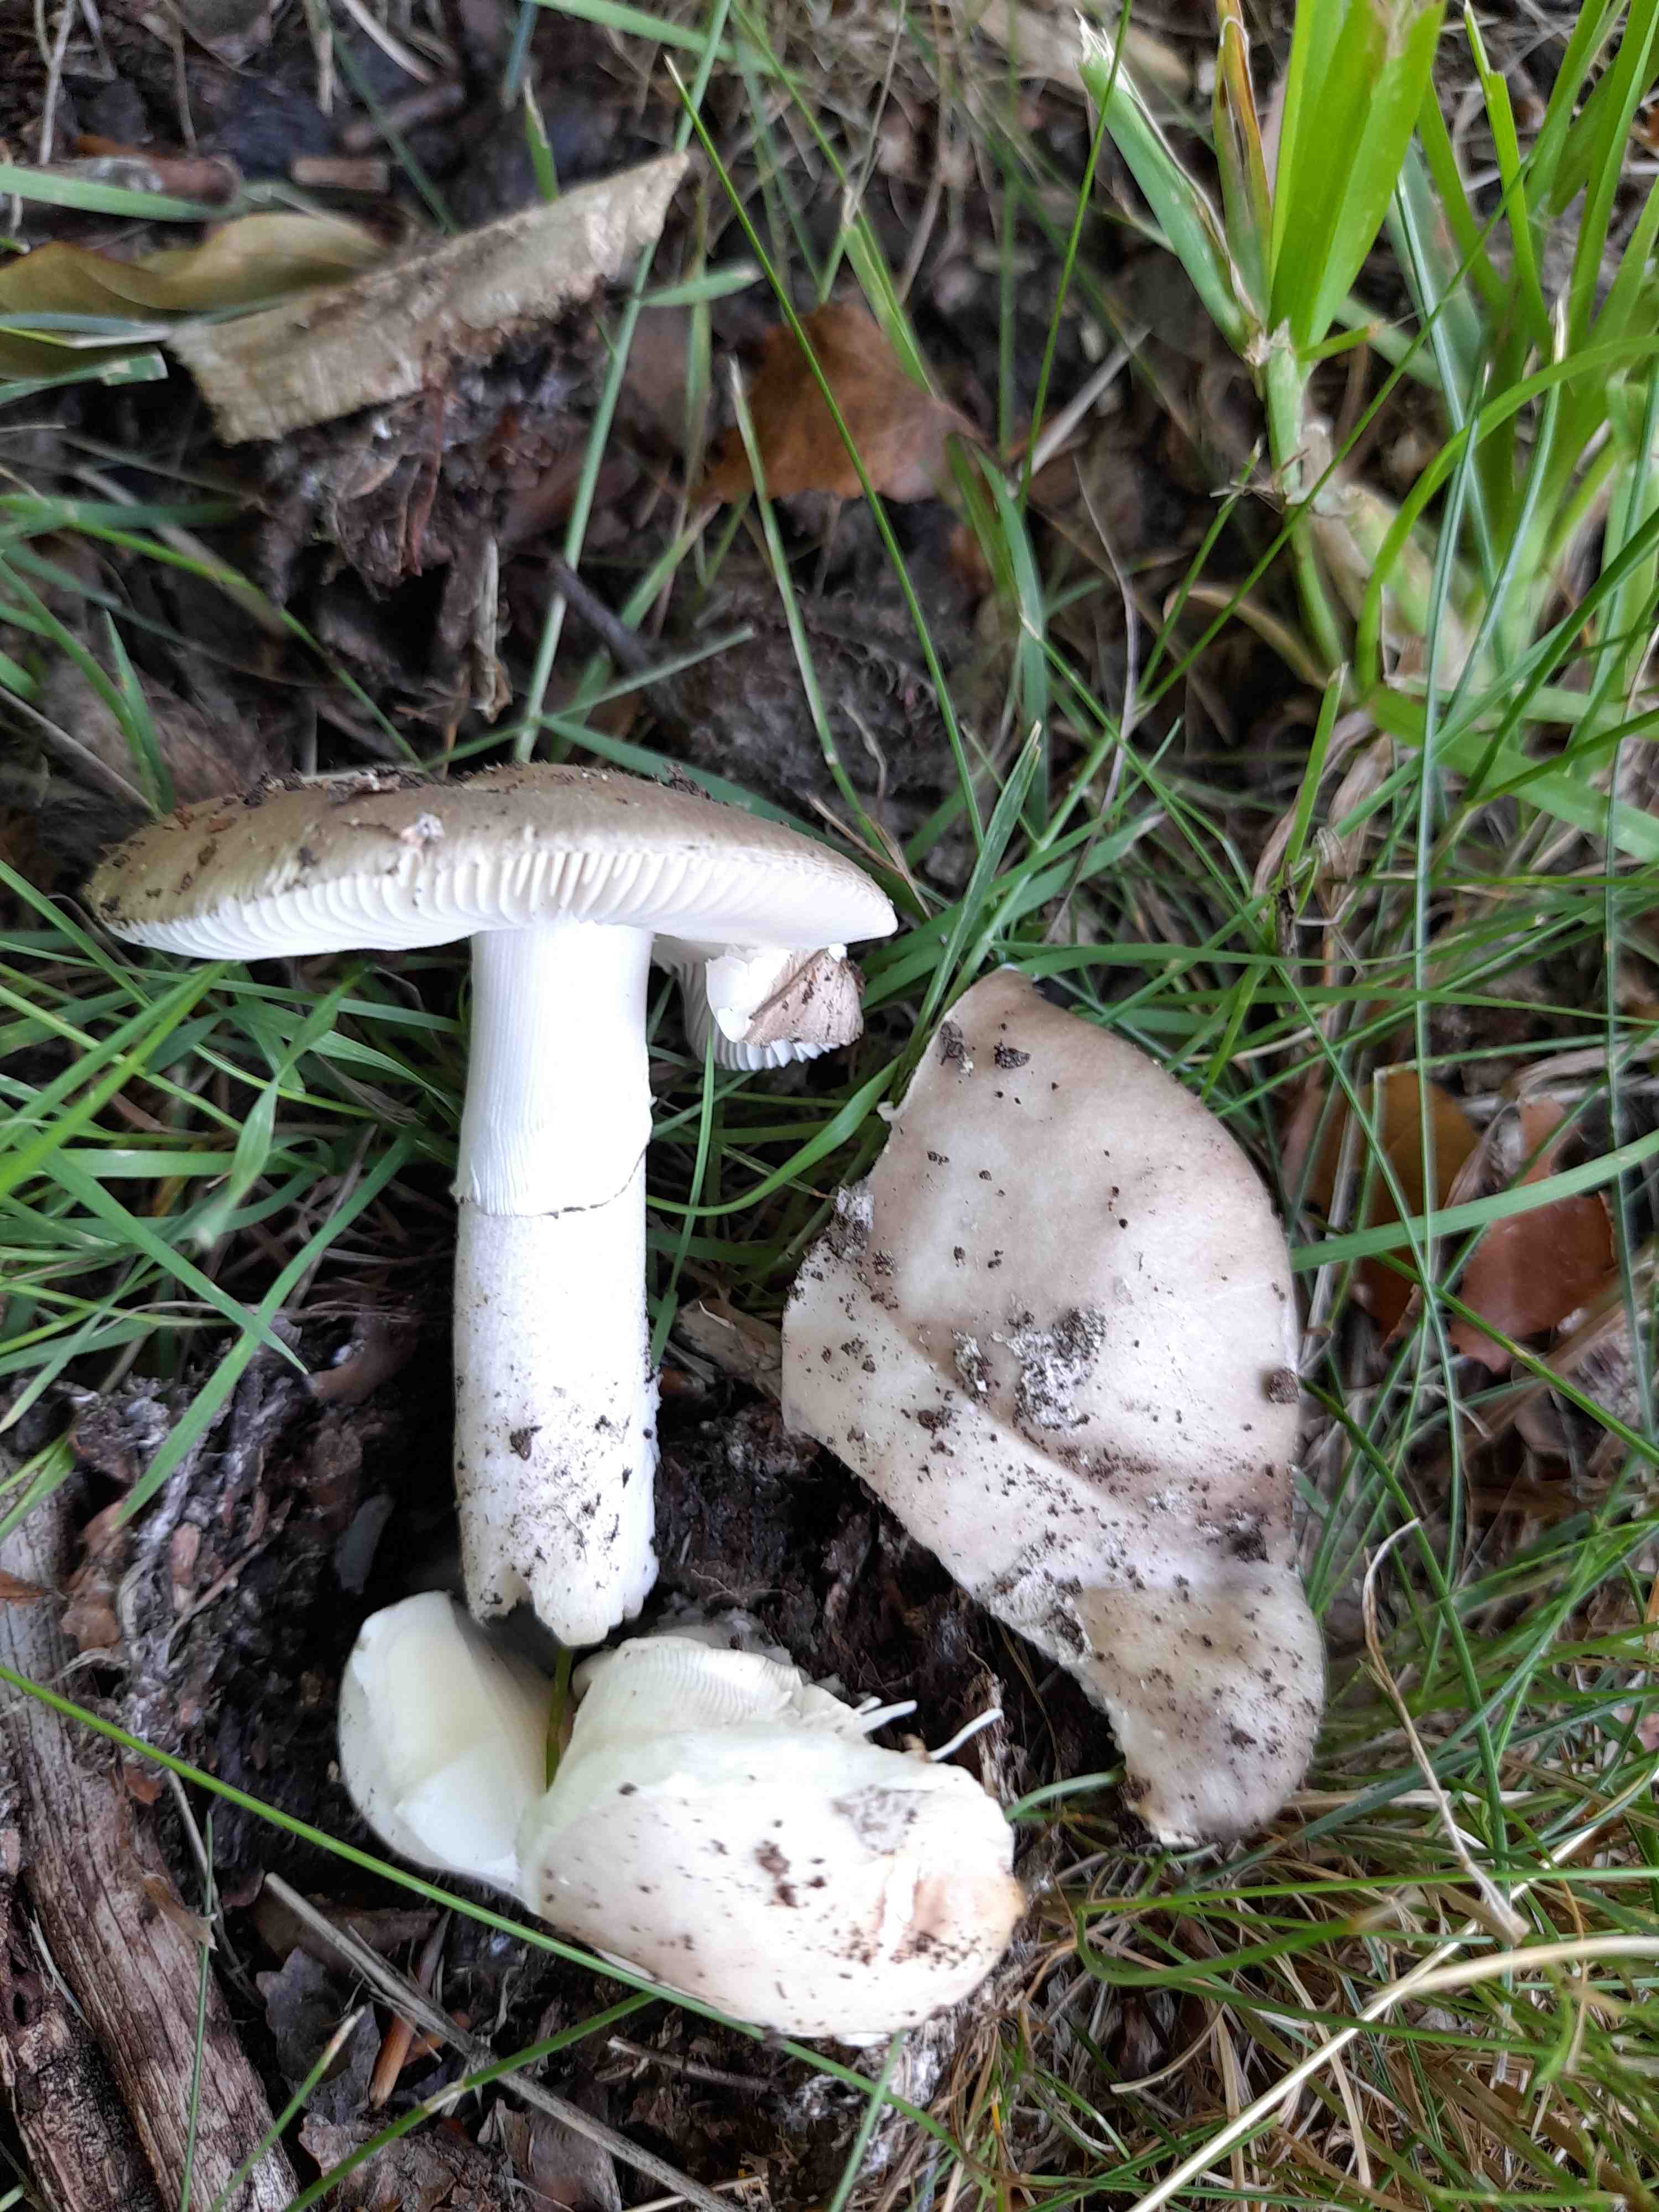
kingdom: Fungi
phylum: Basidiomycota
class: Agaricomycetes
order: Agaricales
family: Amanitaceae
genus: Amanita
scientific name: Amanita
